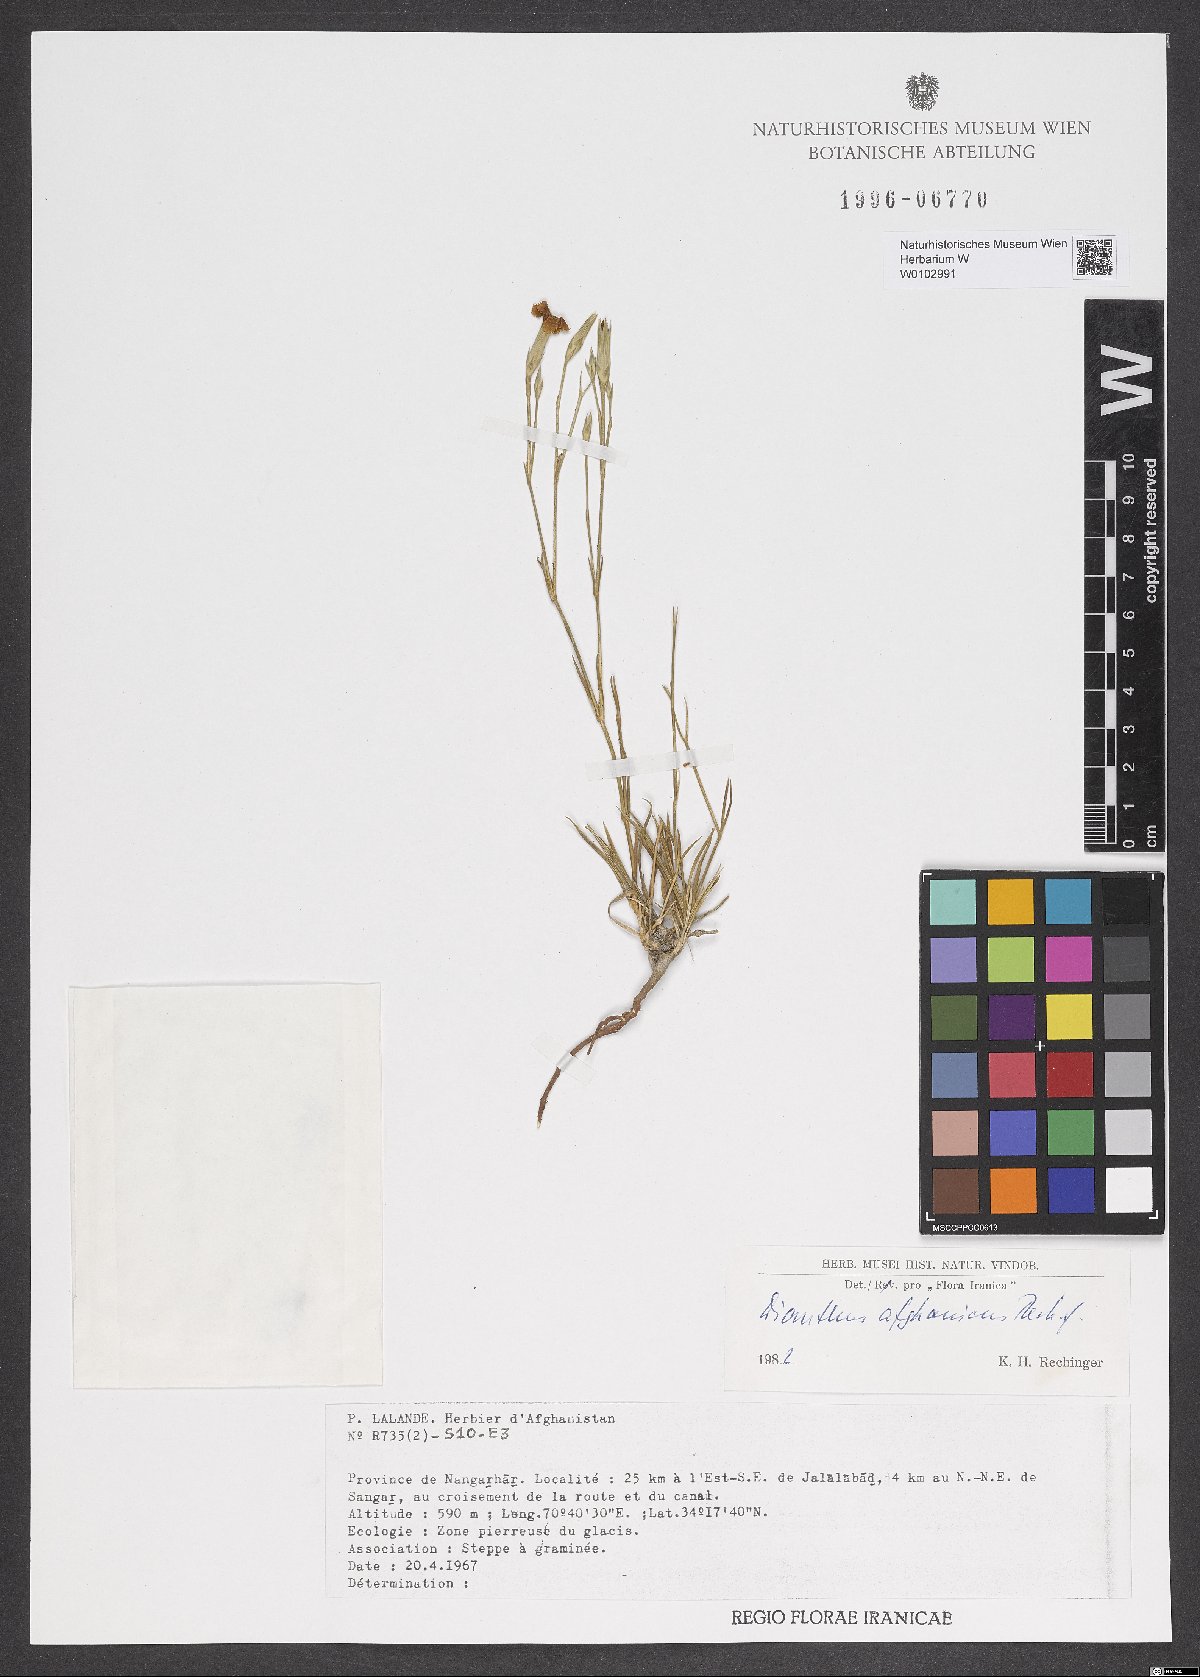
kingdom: Plantae
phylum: Tracheophyta
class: Magnoliopsida
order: Caryophyllales
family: Caryophyllaceae
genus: Dianthus
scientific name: Dianthus afghanicus
